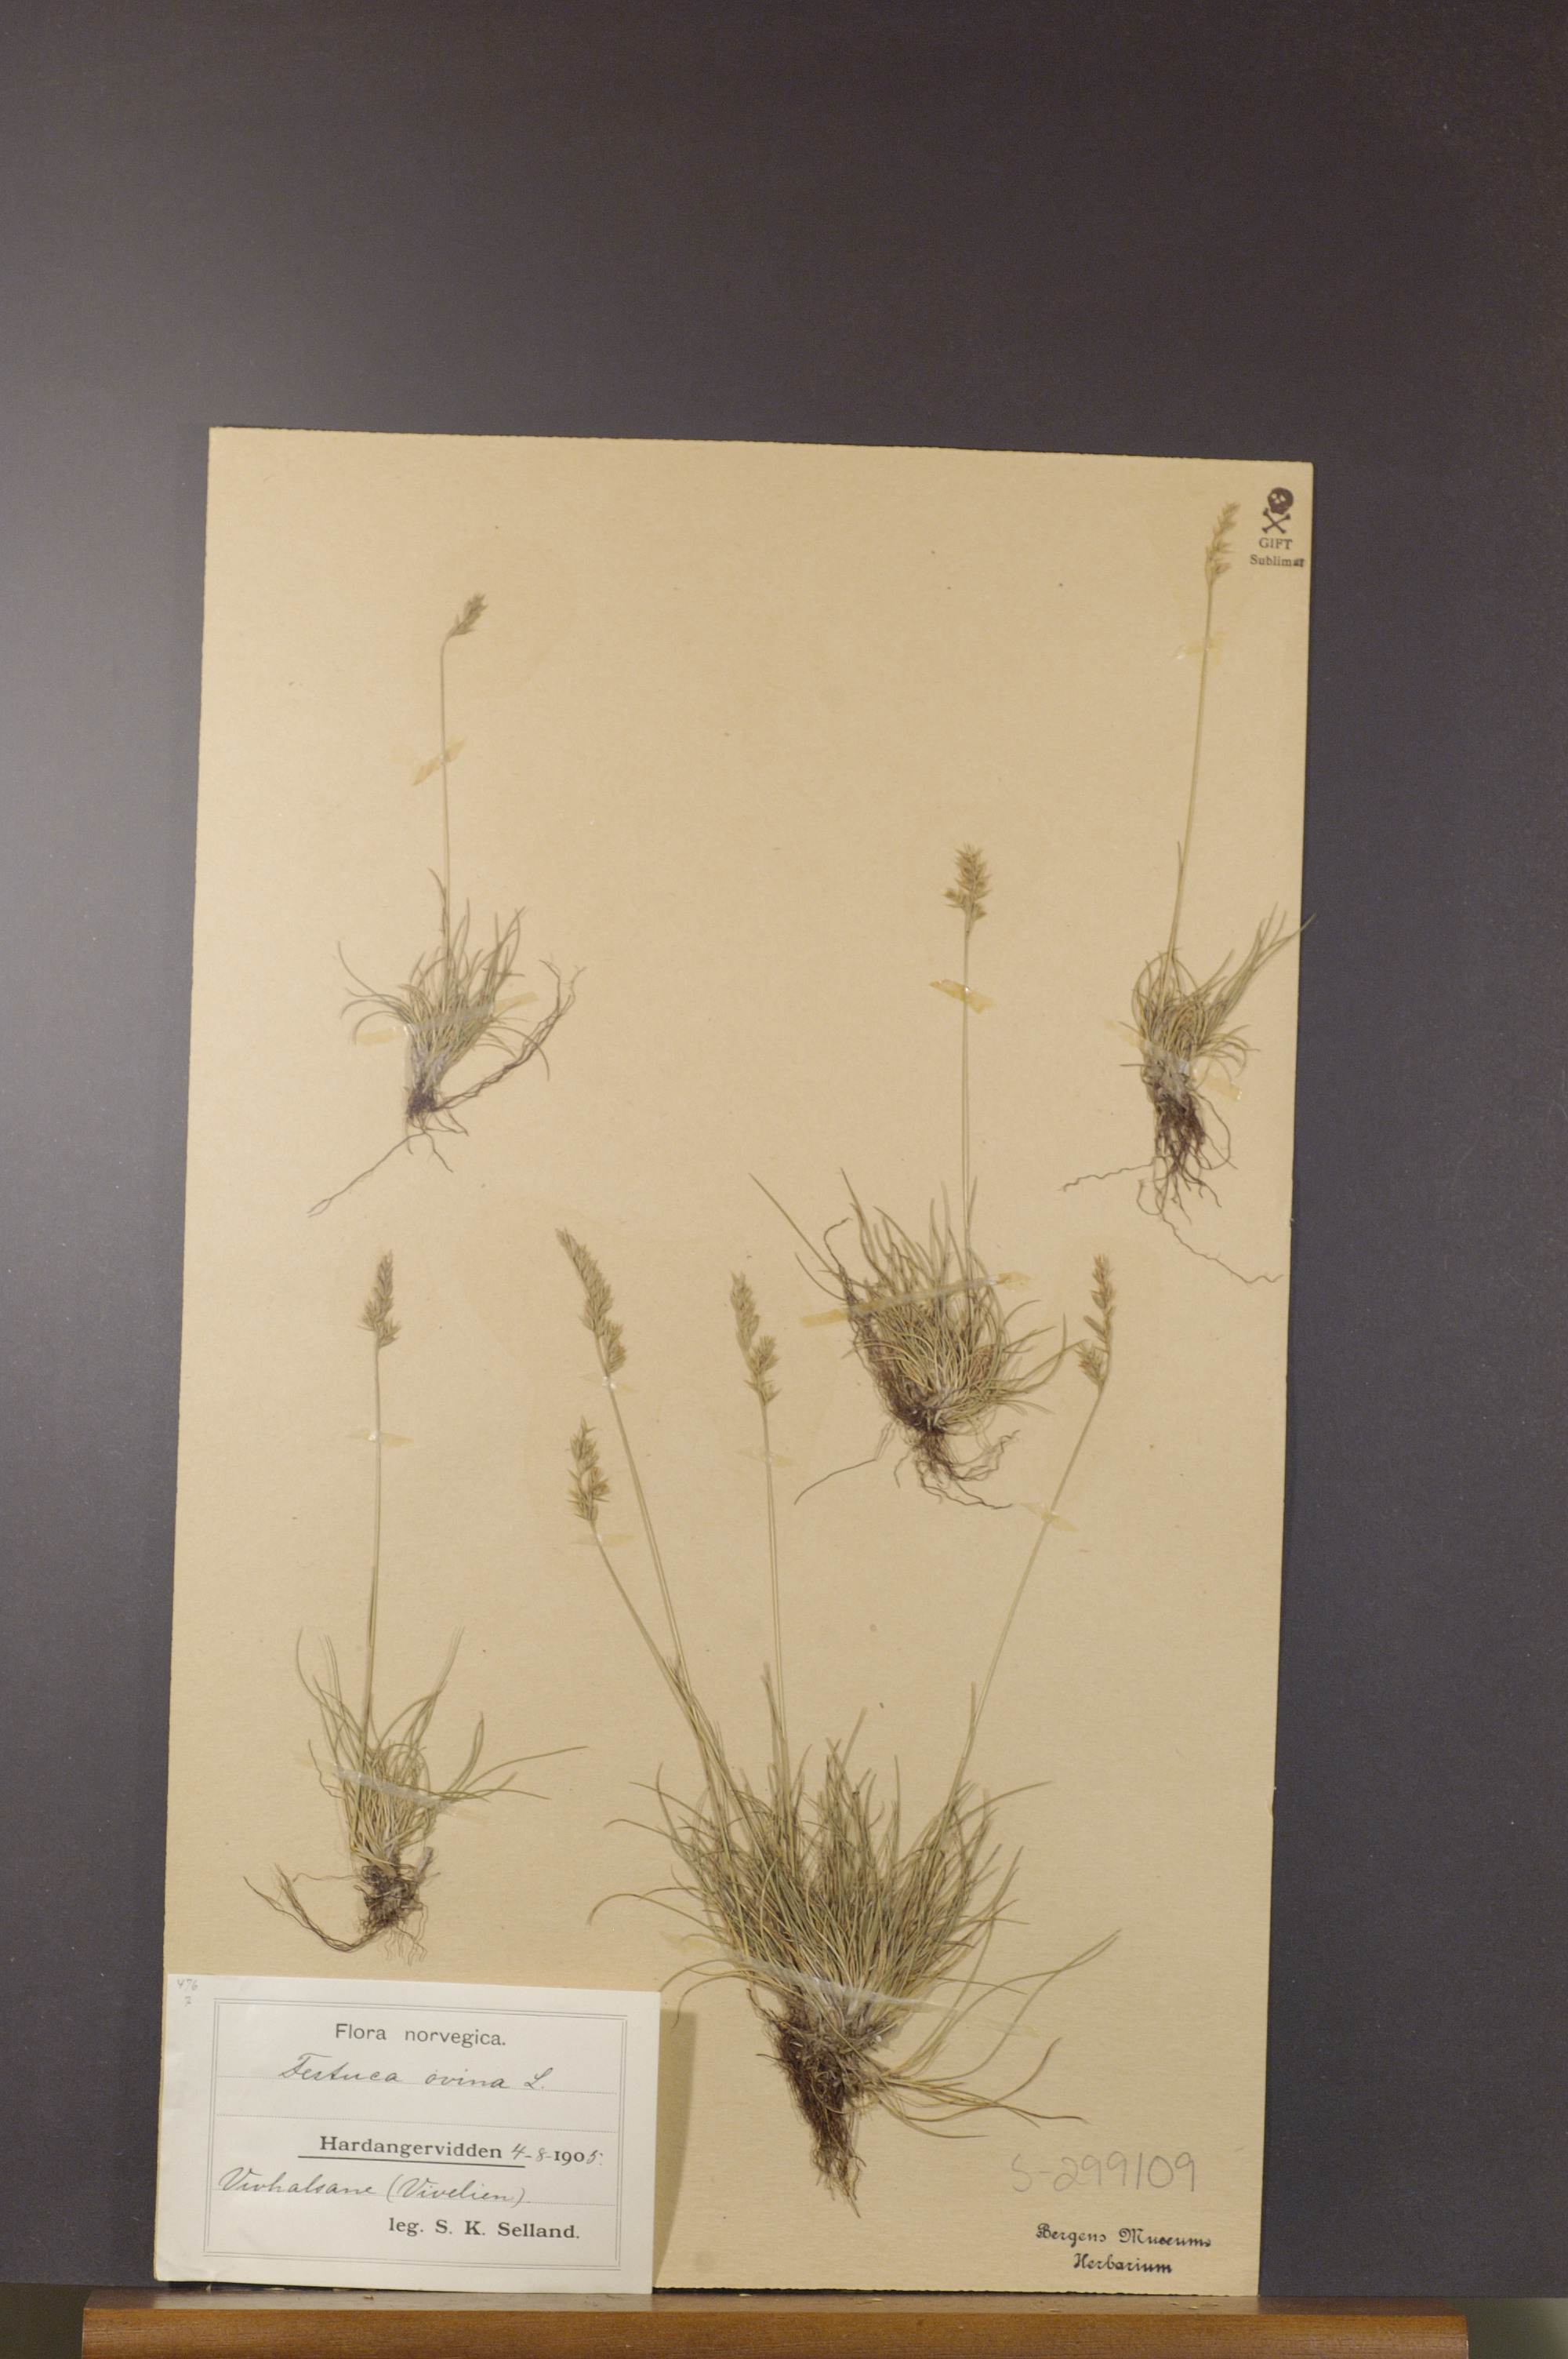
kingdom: Plantae
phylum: Tracheophyta
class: Liliopsida
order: Poales
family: Poaceae
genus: Festuca
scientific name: Festuca ovina
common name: Sheep fescue
